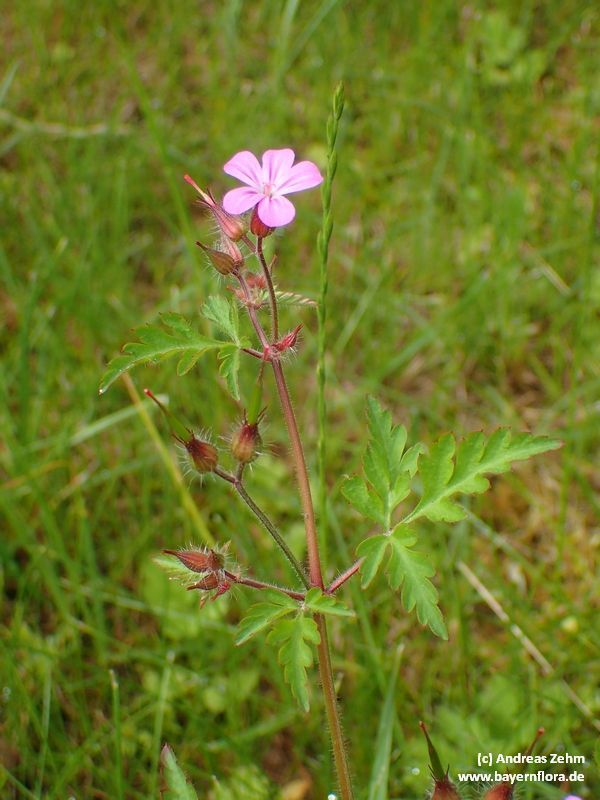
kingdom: Plantae
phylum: Tracheophyta
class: Magnoliopsida
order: Geraniales
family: Geraniaceae
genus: Geranium
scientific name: Geranium robertianum
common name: Herb-robert
